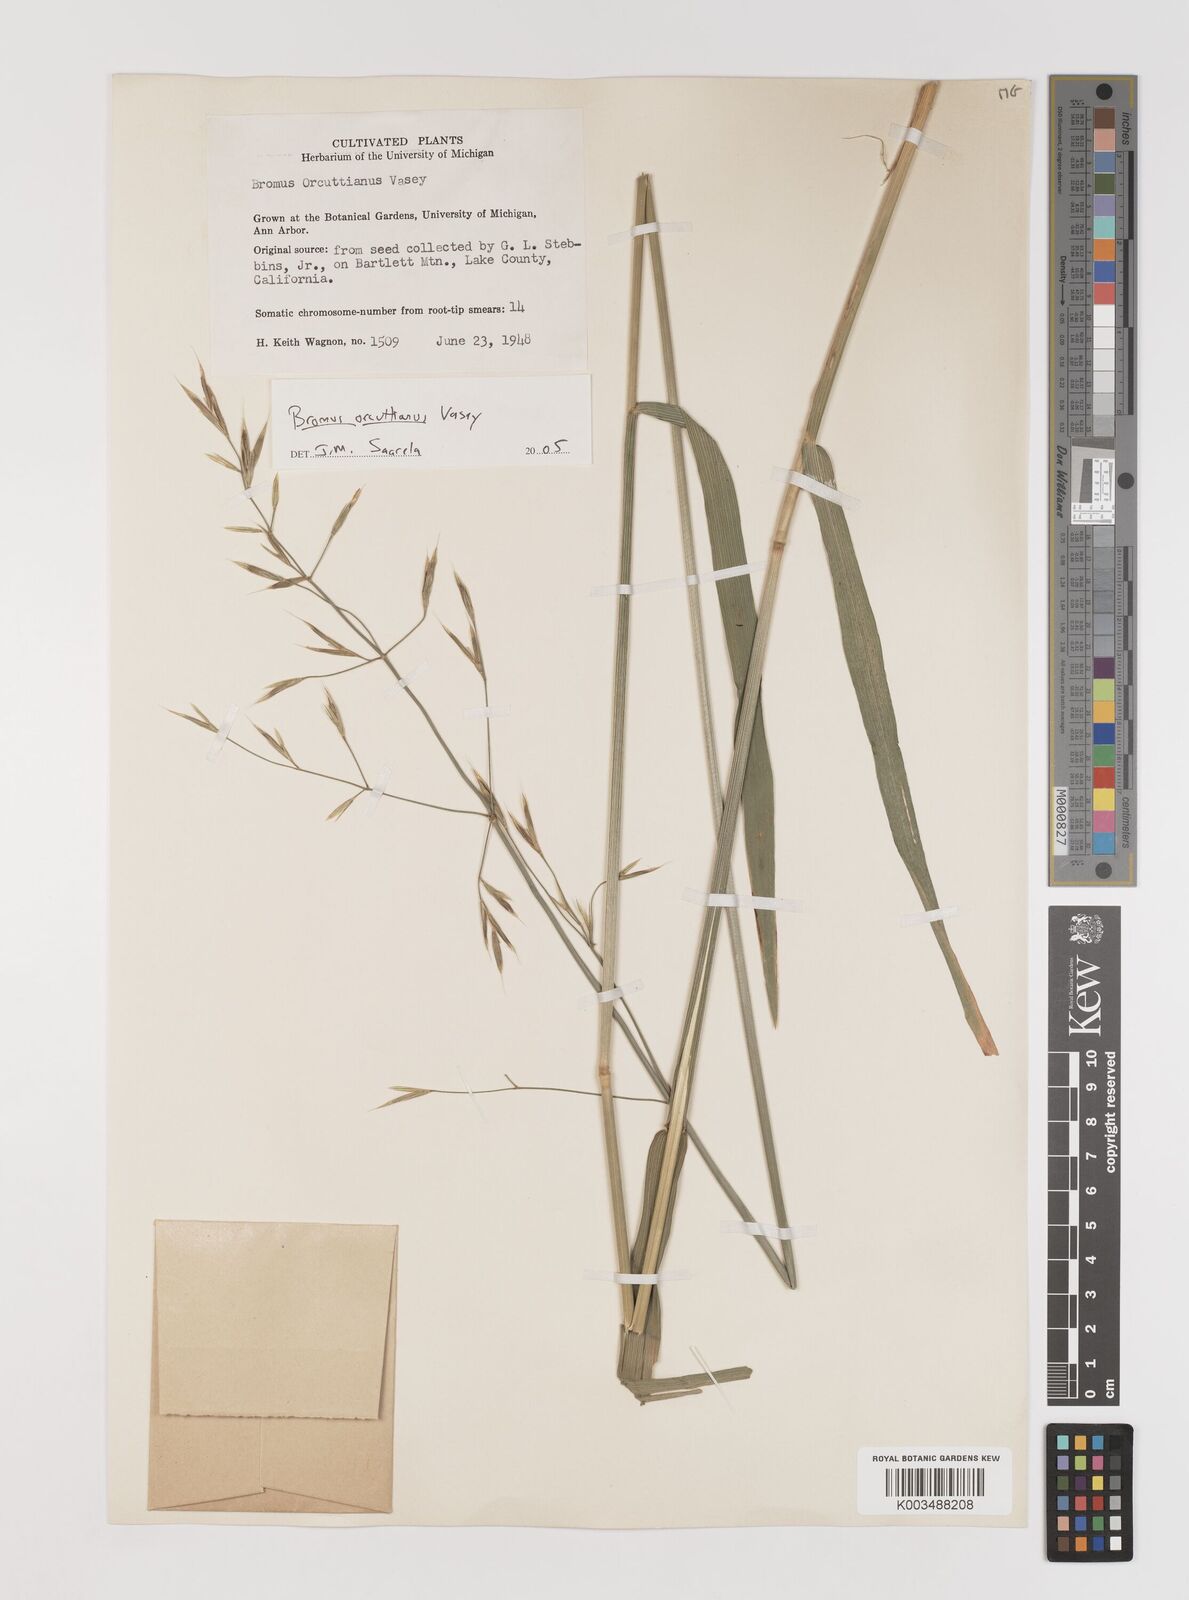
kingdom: Plantae
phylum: Tracheophyta
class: Liliopsida
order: Poales
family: Poaceae
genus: Bromus
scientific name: Bromus orcuttianus
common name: Orcutt's brome
